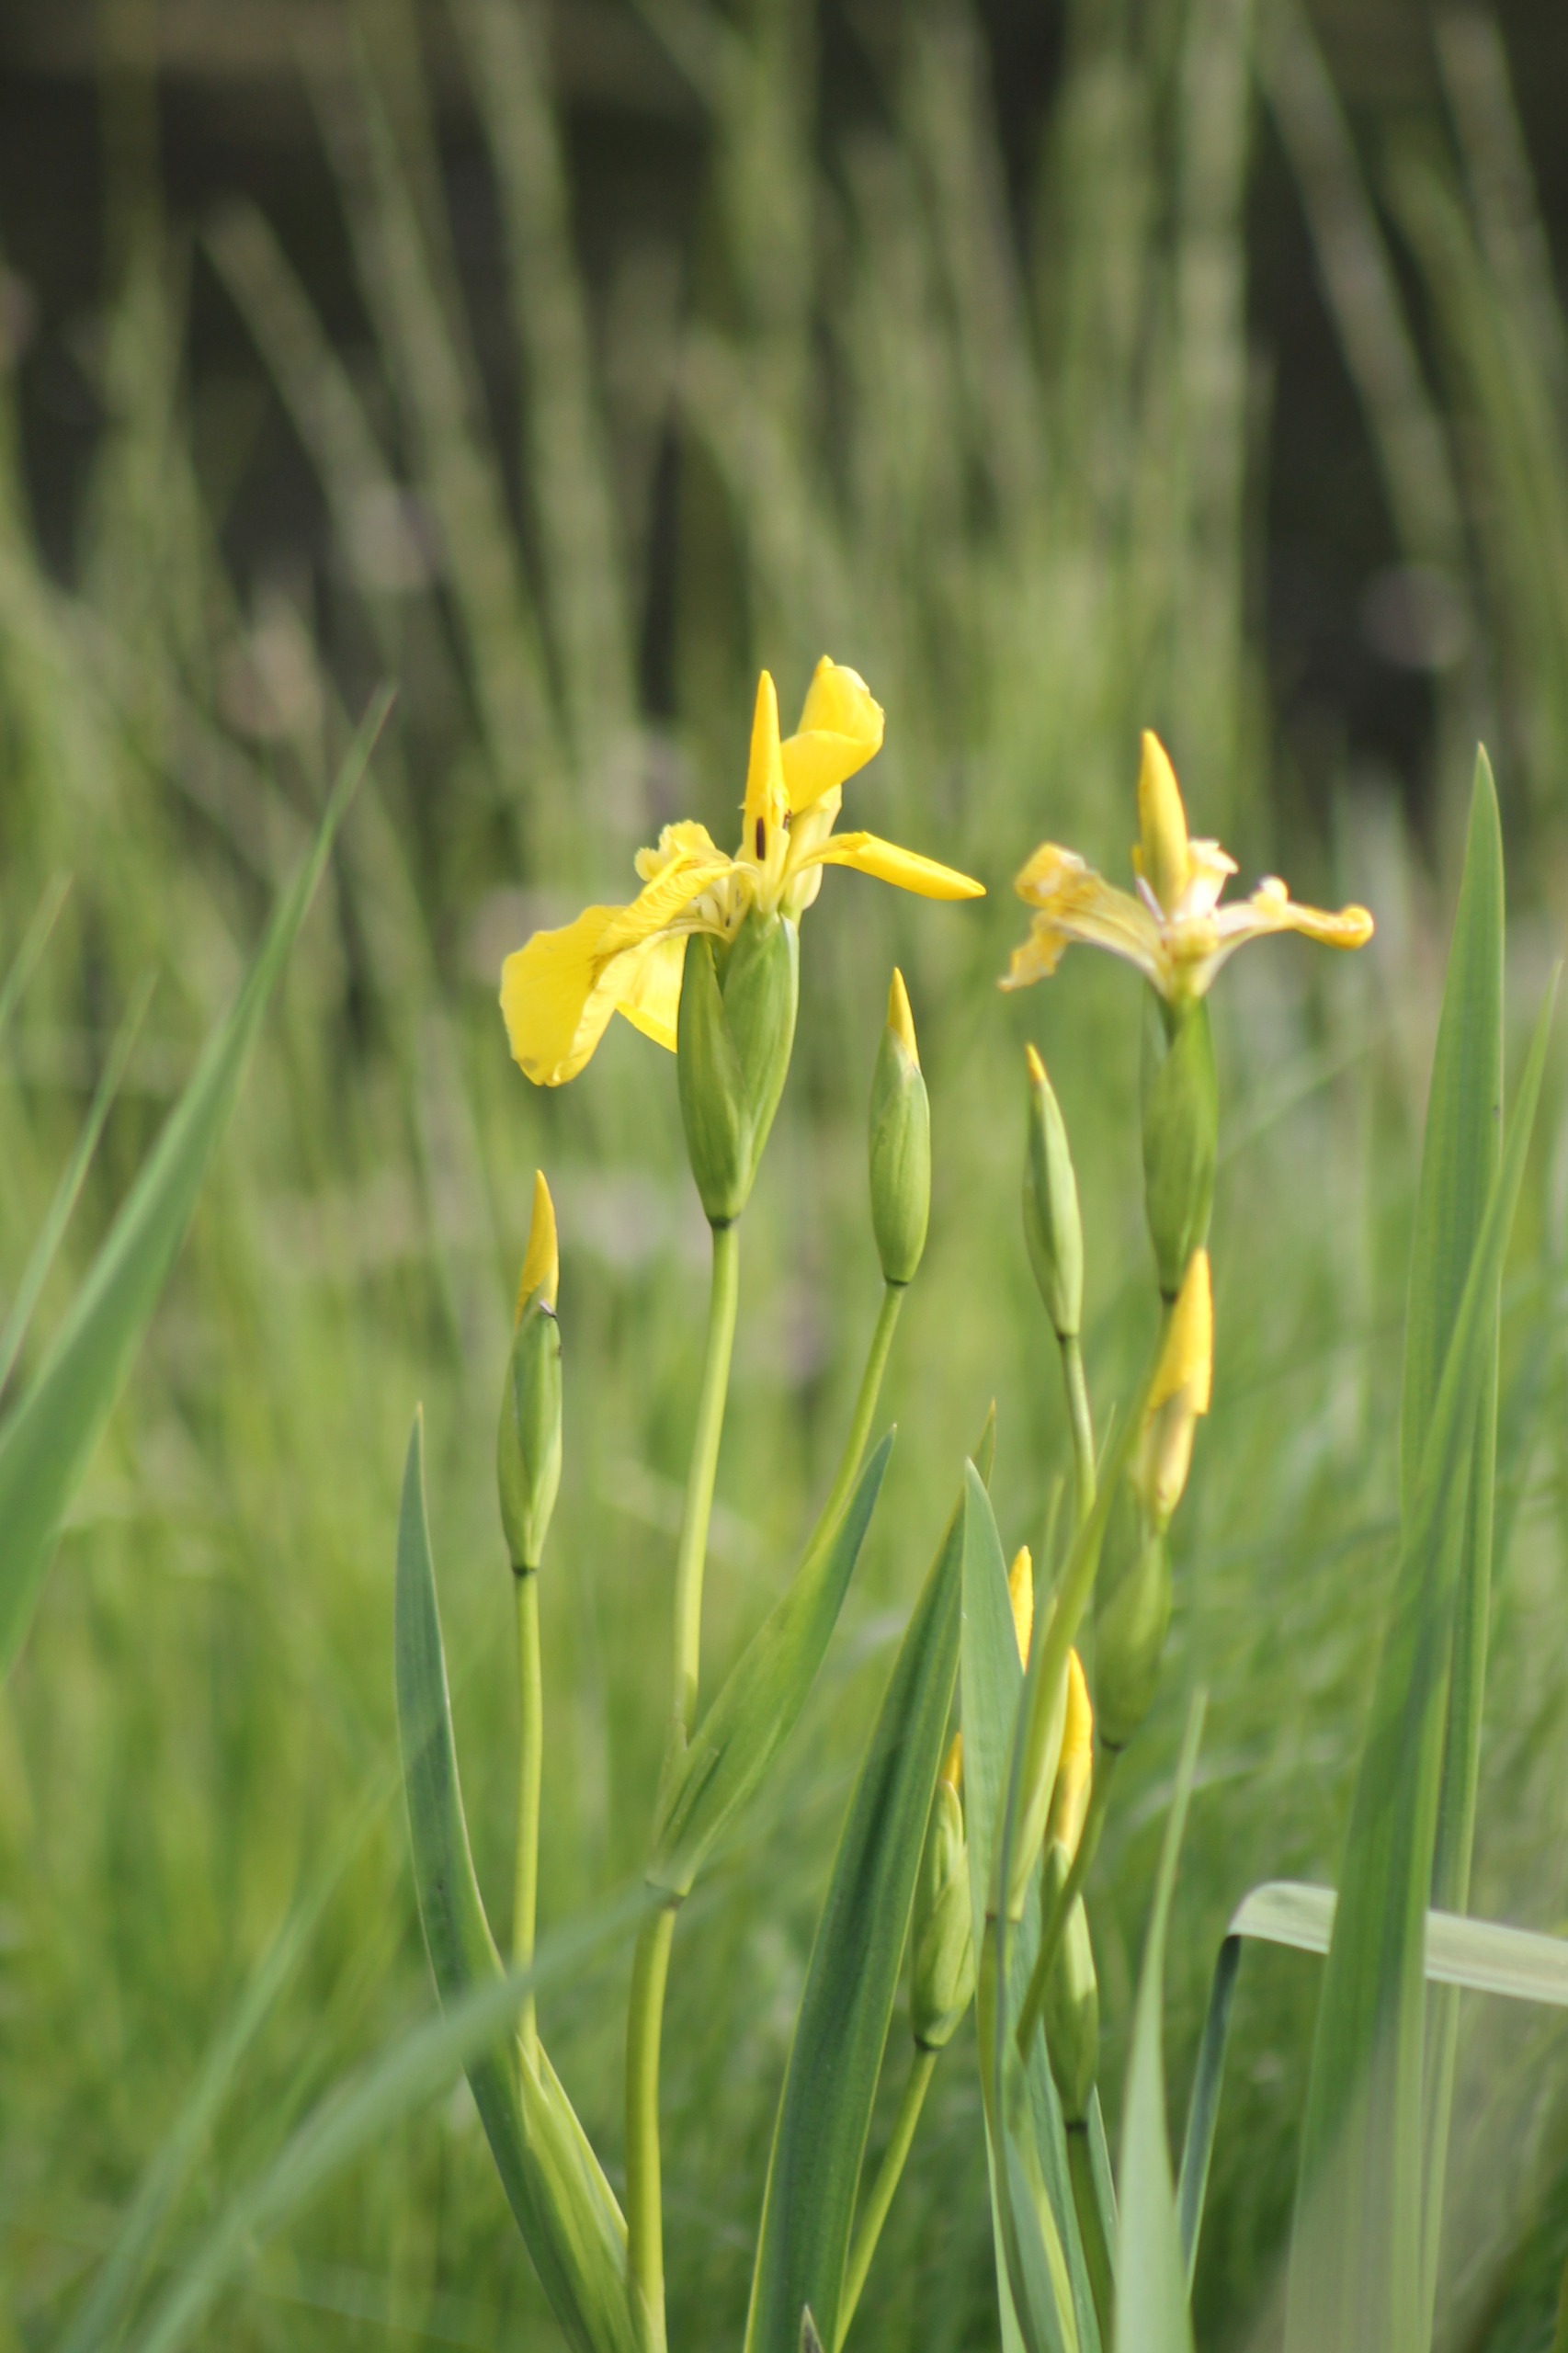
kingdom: Plantae
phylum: Tracheophyta
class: Liliopsida
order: Asparagales
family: Iridaceae
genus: Iris
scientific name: Iris pseudacorus
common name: Gul iris
